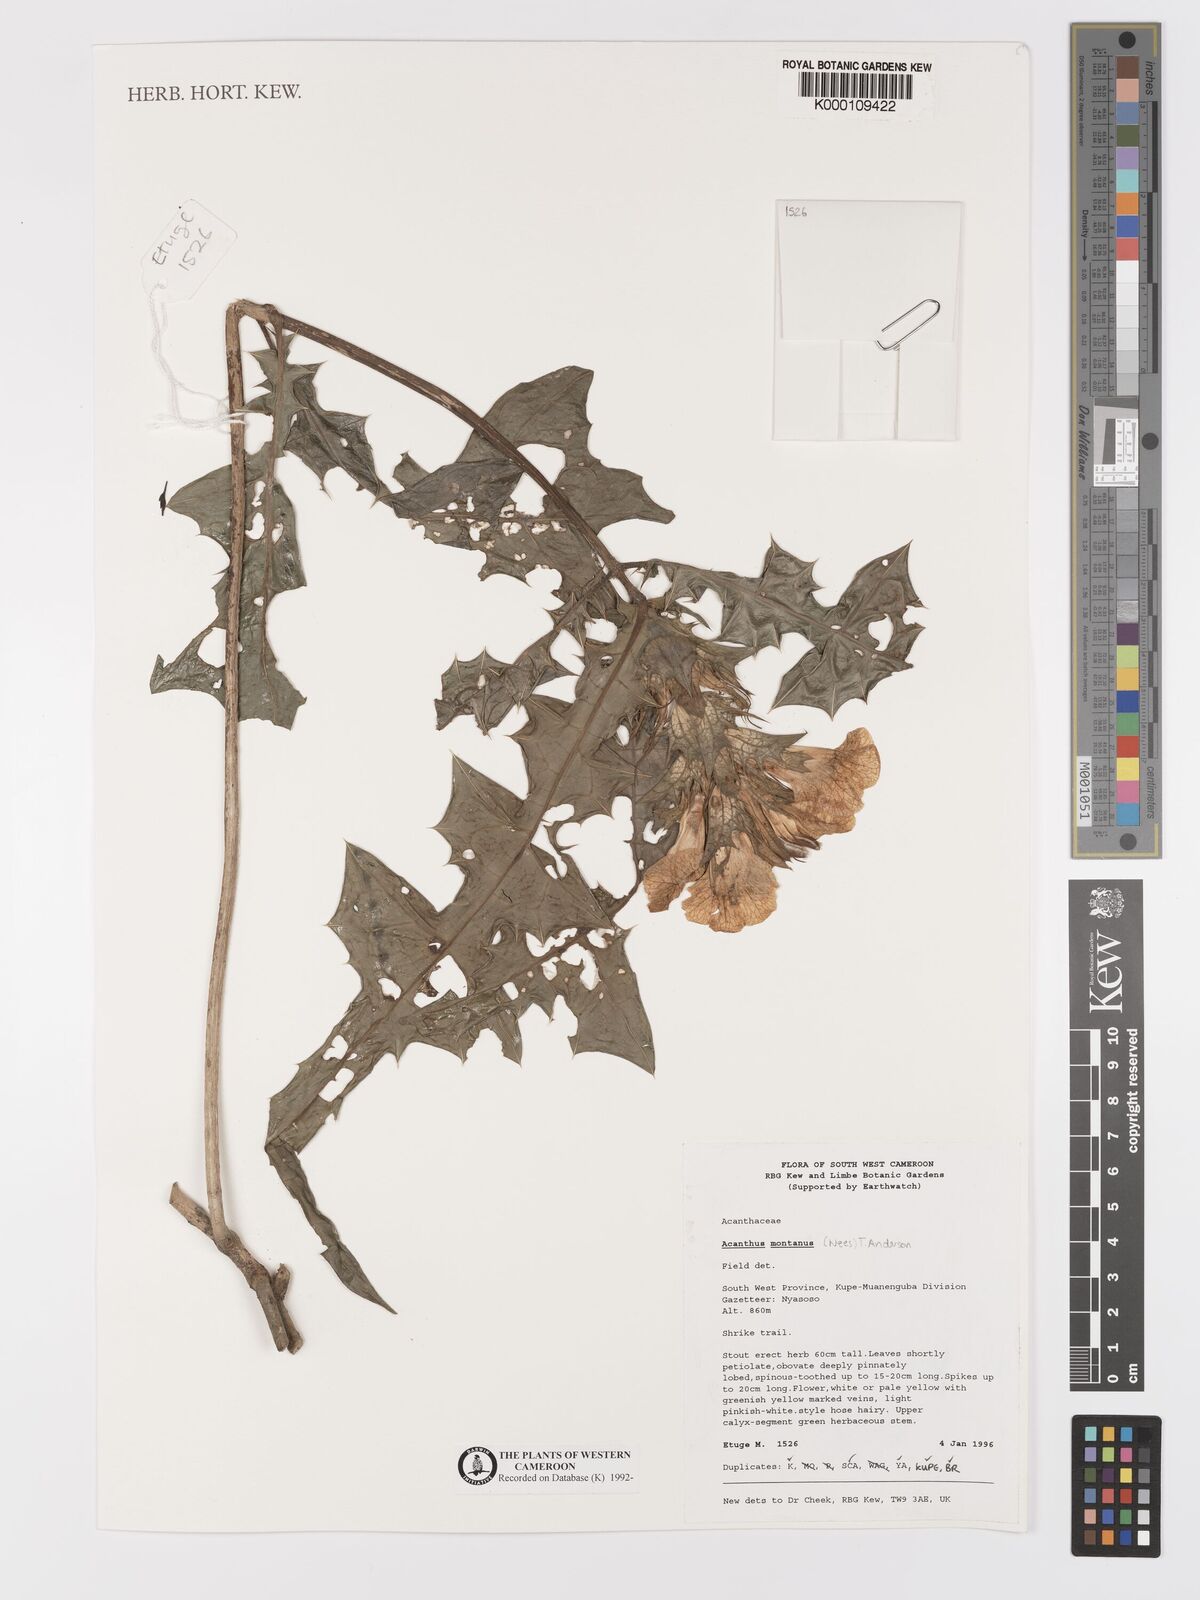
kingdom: Plantae
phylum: Tracheophyta
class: Magnoliopsida
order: Lamiales
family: Acanthaceae
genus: Acanthus
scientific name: Acanthus montanus
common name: Mountain thistle
